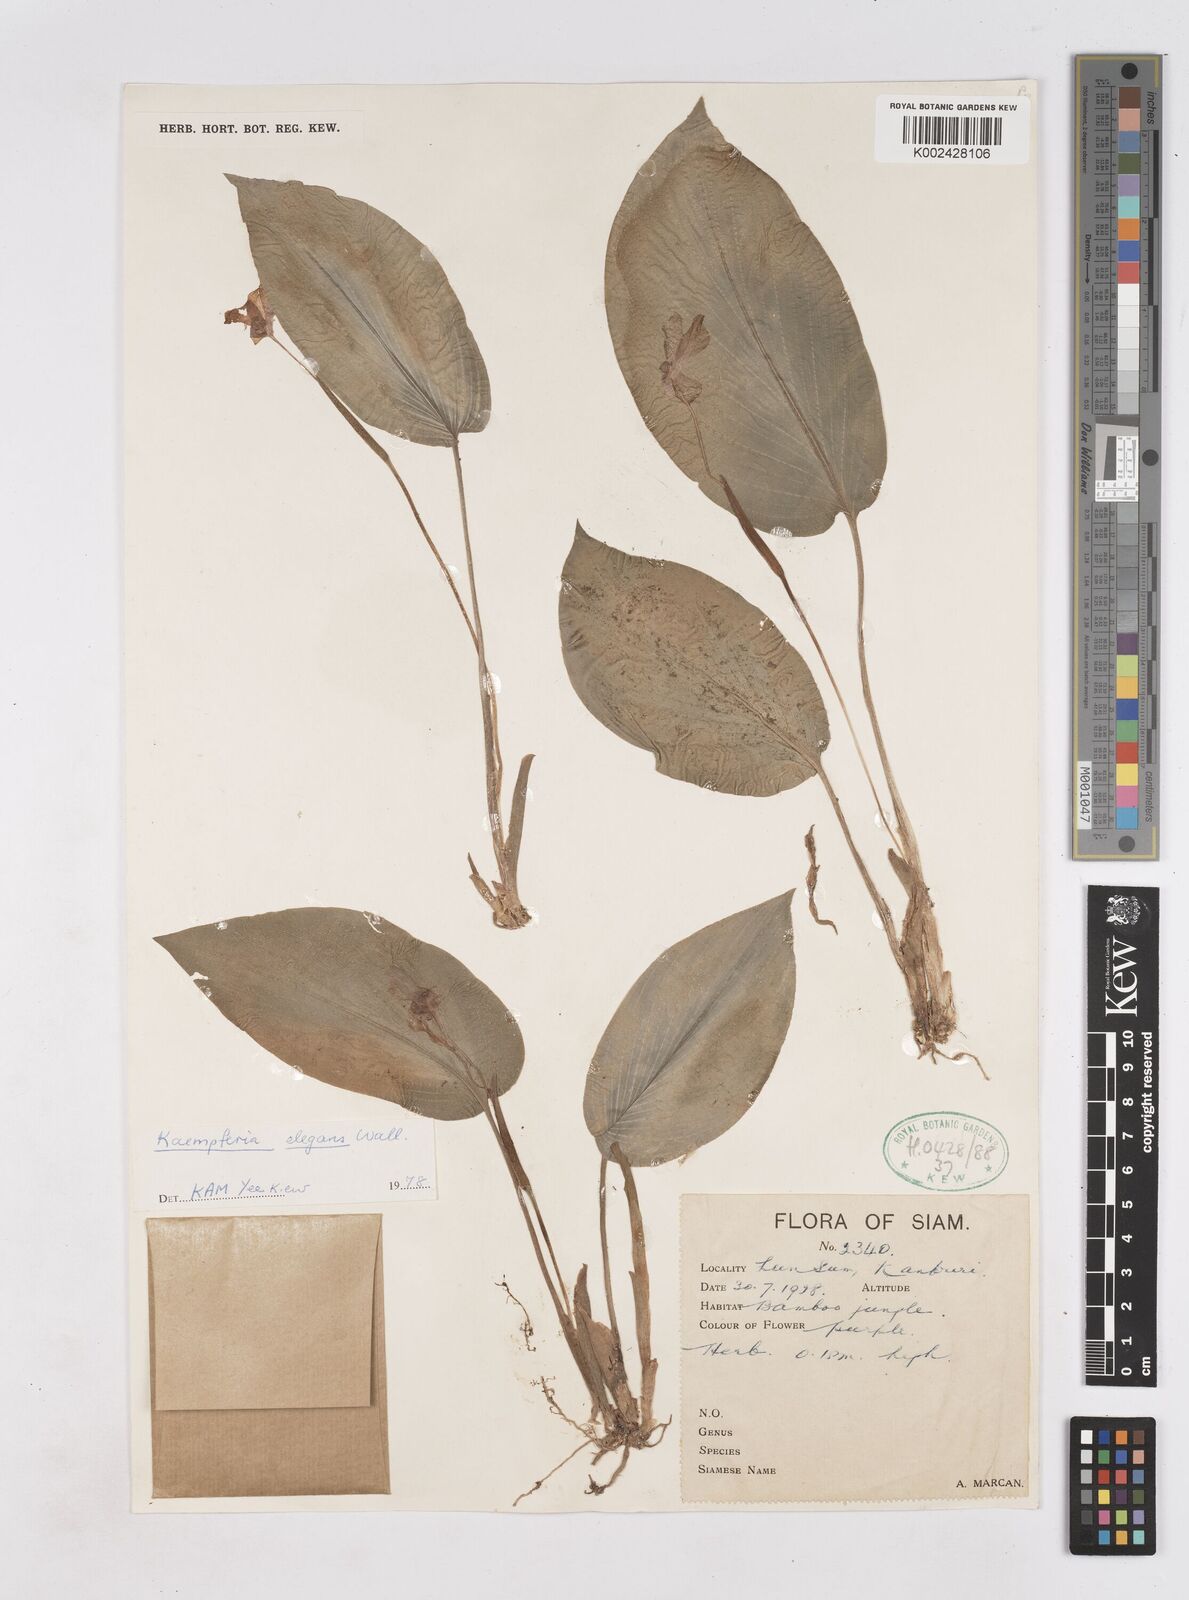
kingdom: Plantae
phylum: Tracheophyta
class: Liliopsida
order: Zingiberales
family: Zingiberaceae
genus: Kaempferia
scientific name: Kaempferia elegans
